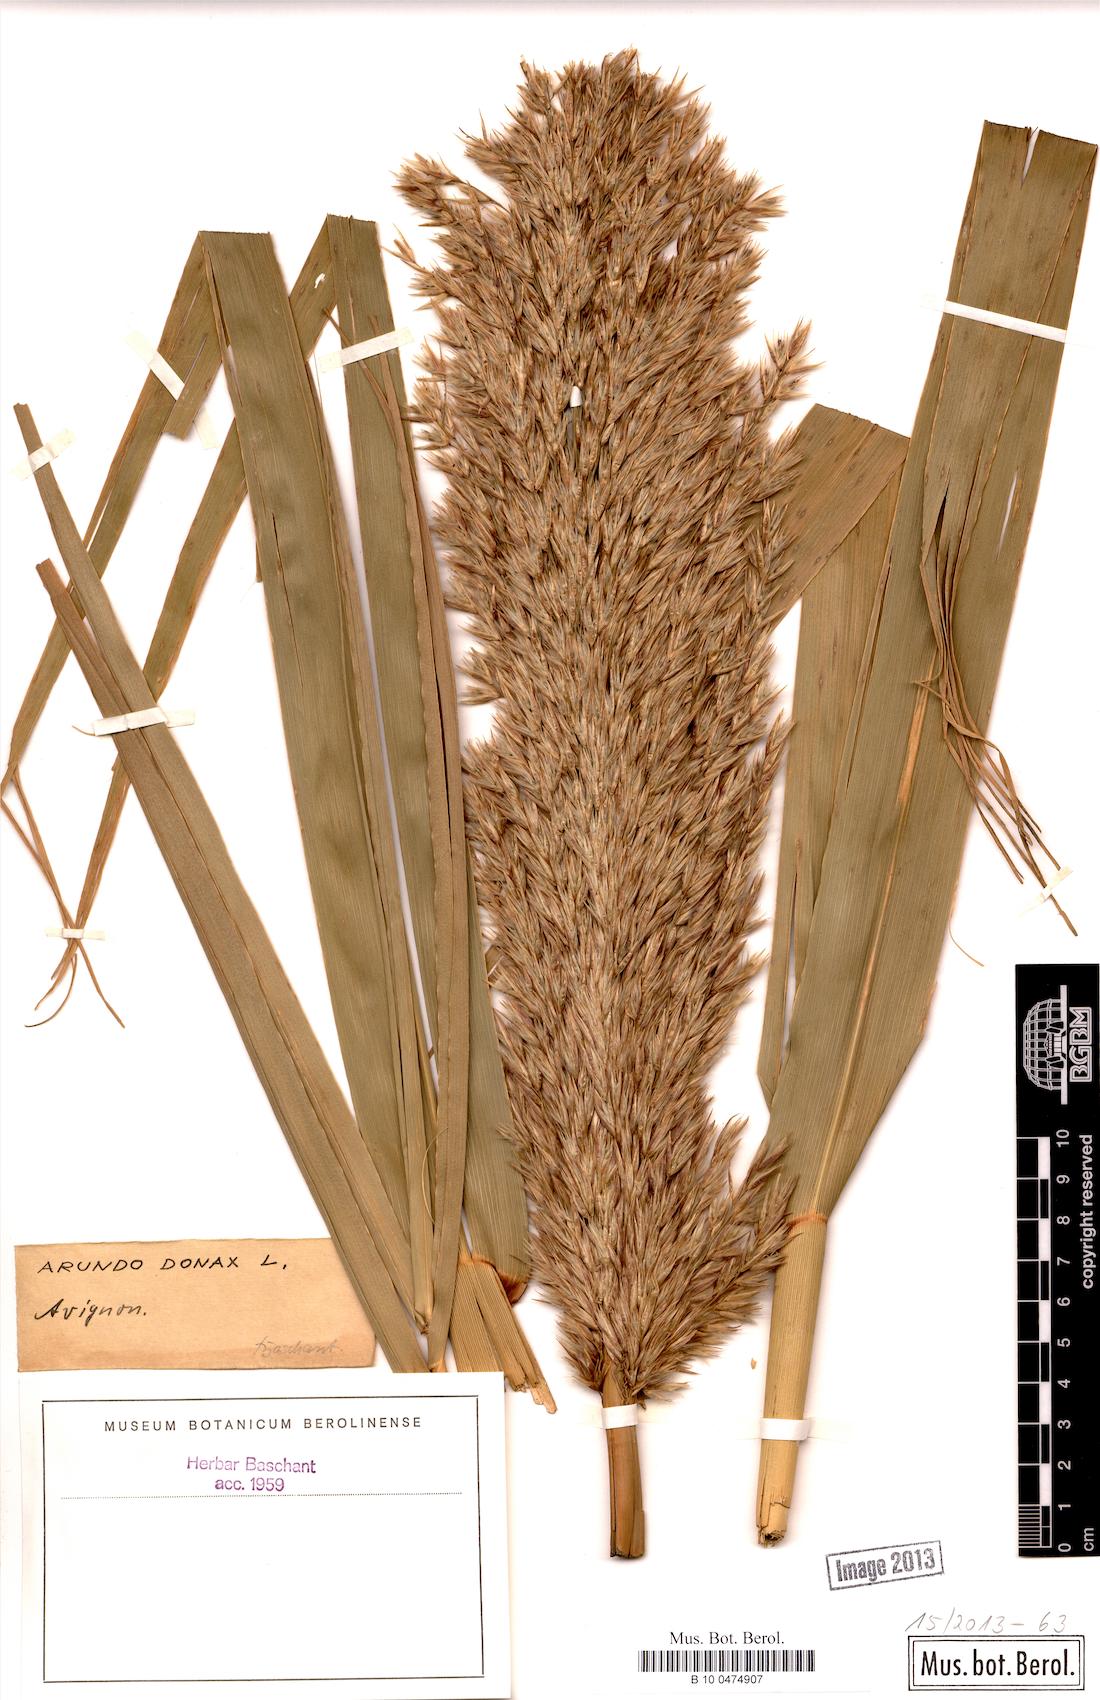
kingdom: Plantae
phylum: Tracheophyta
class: Liliopsida
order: Poales
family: Poaceae
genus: Arundo
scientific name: Arundo donax
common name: Giant reed
